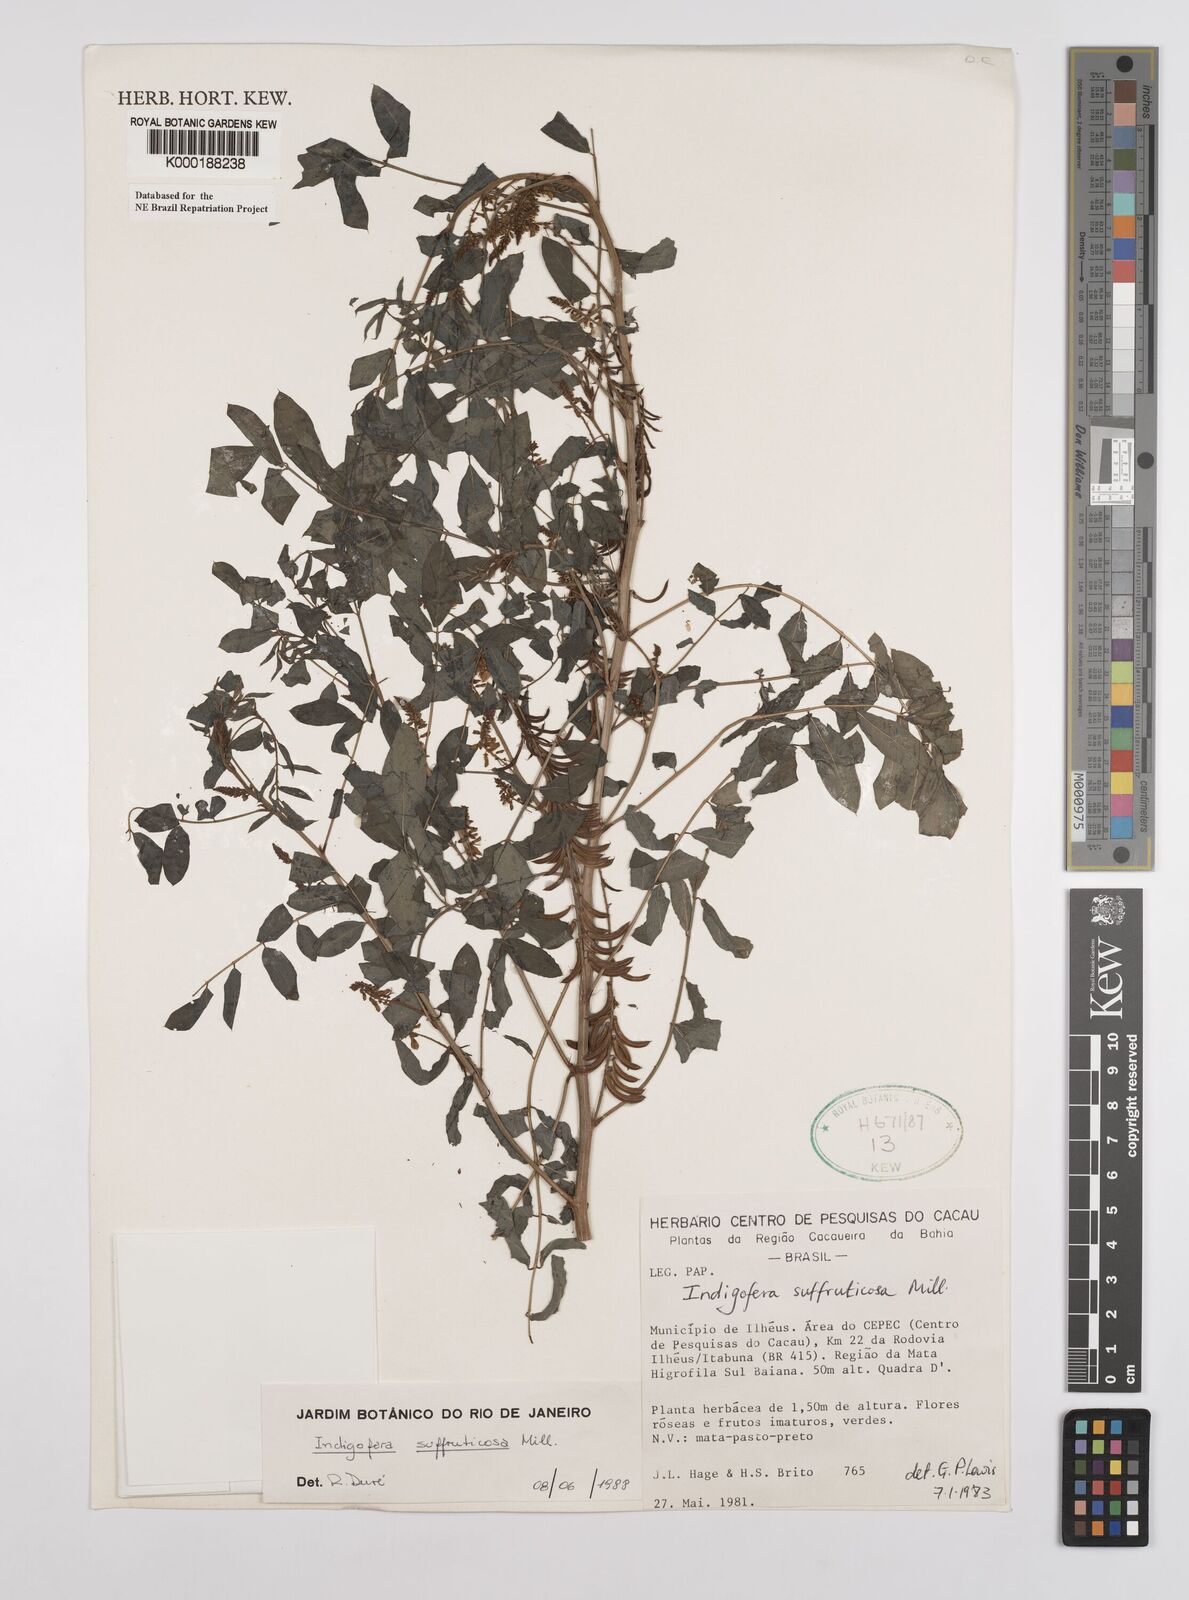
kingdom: Plantae
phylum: Tracheophyta
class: Magnoliopsida
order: Fabales
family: Fabaceae
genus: Indigofera
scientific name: Indigofera suffruticosa
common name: Anil de pasto
